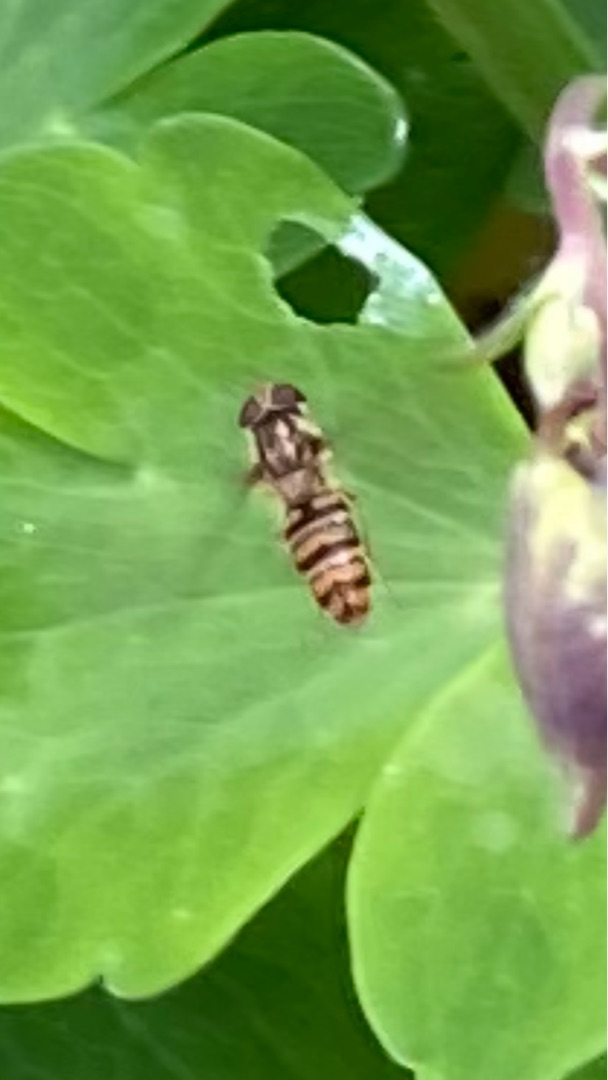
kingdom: Animalia
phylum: Arthropoda
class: Insecta
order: Diptera
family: Syrphidae
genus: Episyrphus
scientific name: Episyrphus balteatus
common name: Dobbeltbåndet svirreflue
